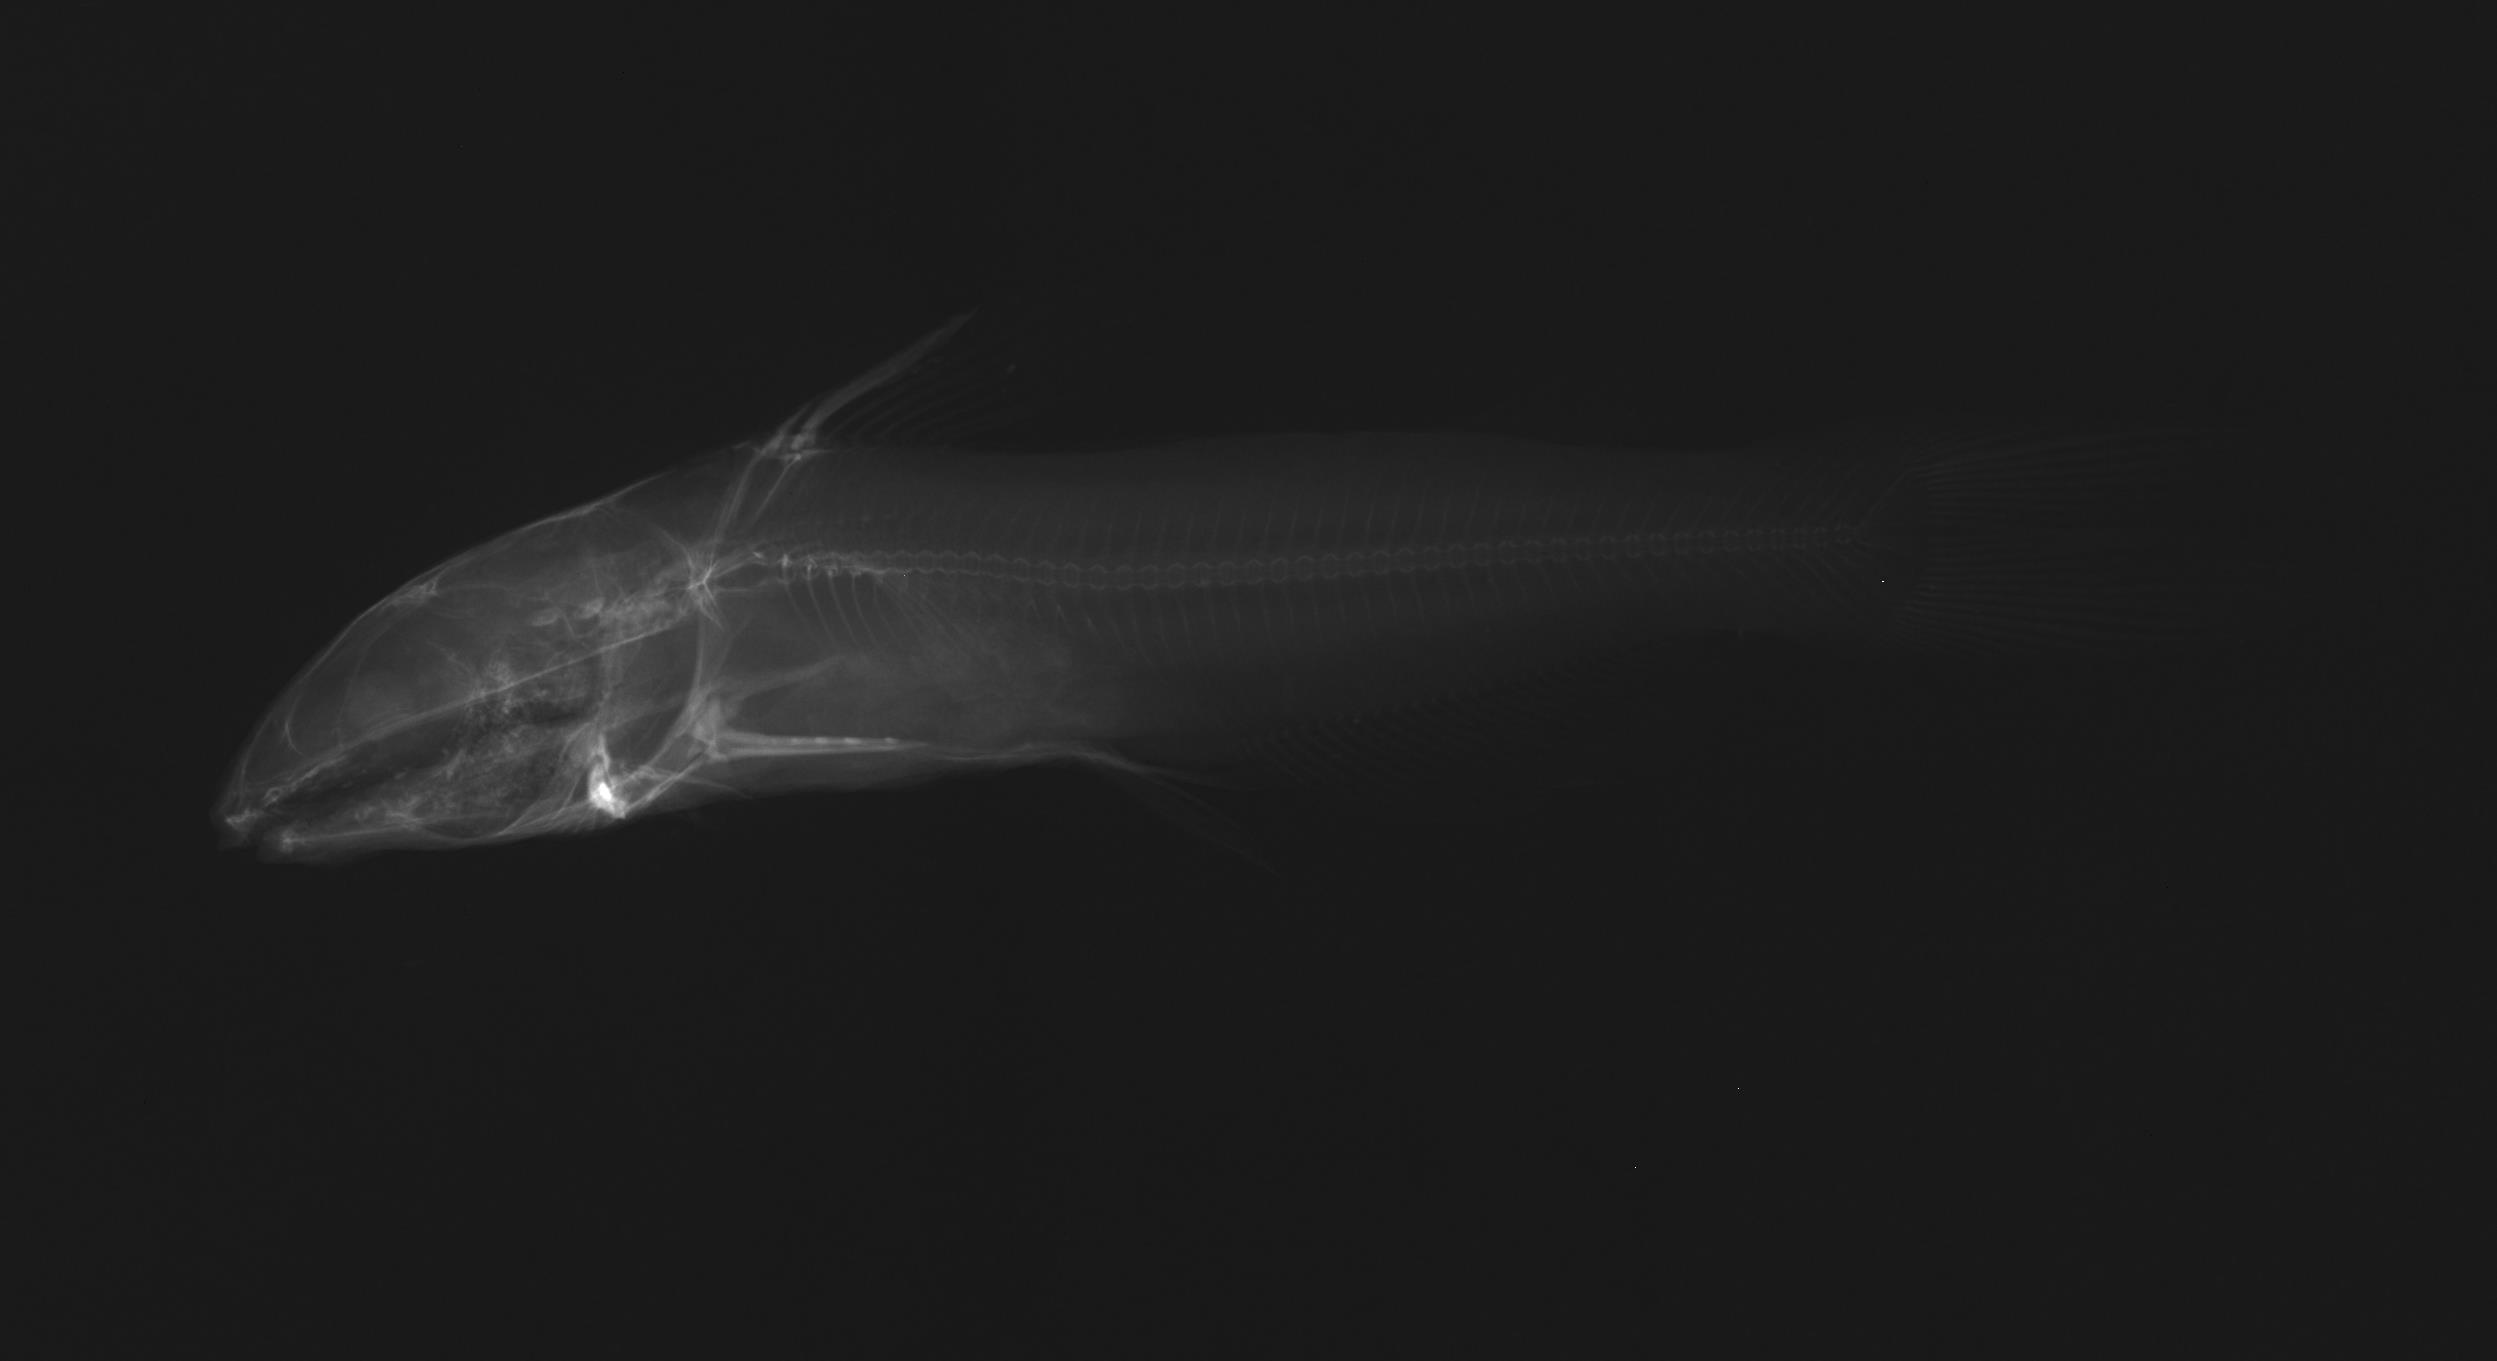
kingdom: Animalia
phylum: Chordata
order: Siluriformes
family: Ictaluridae
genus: Ictalurus
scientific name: Ictalurus punctatus
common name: Channel catfish
